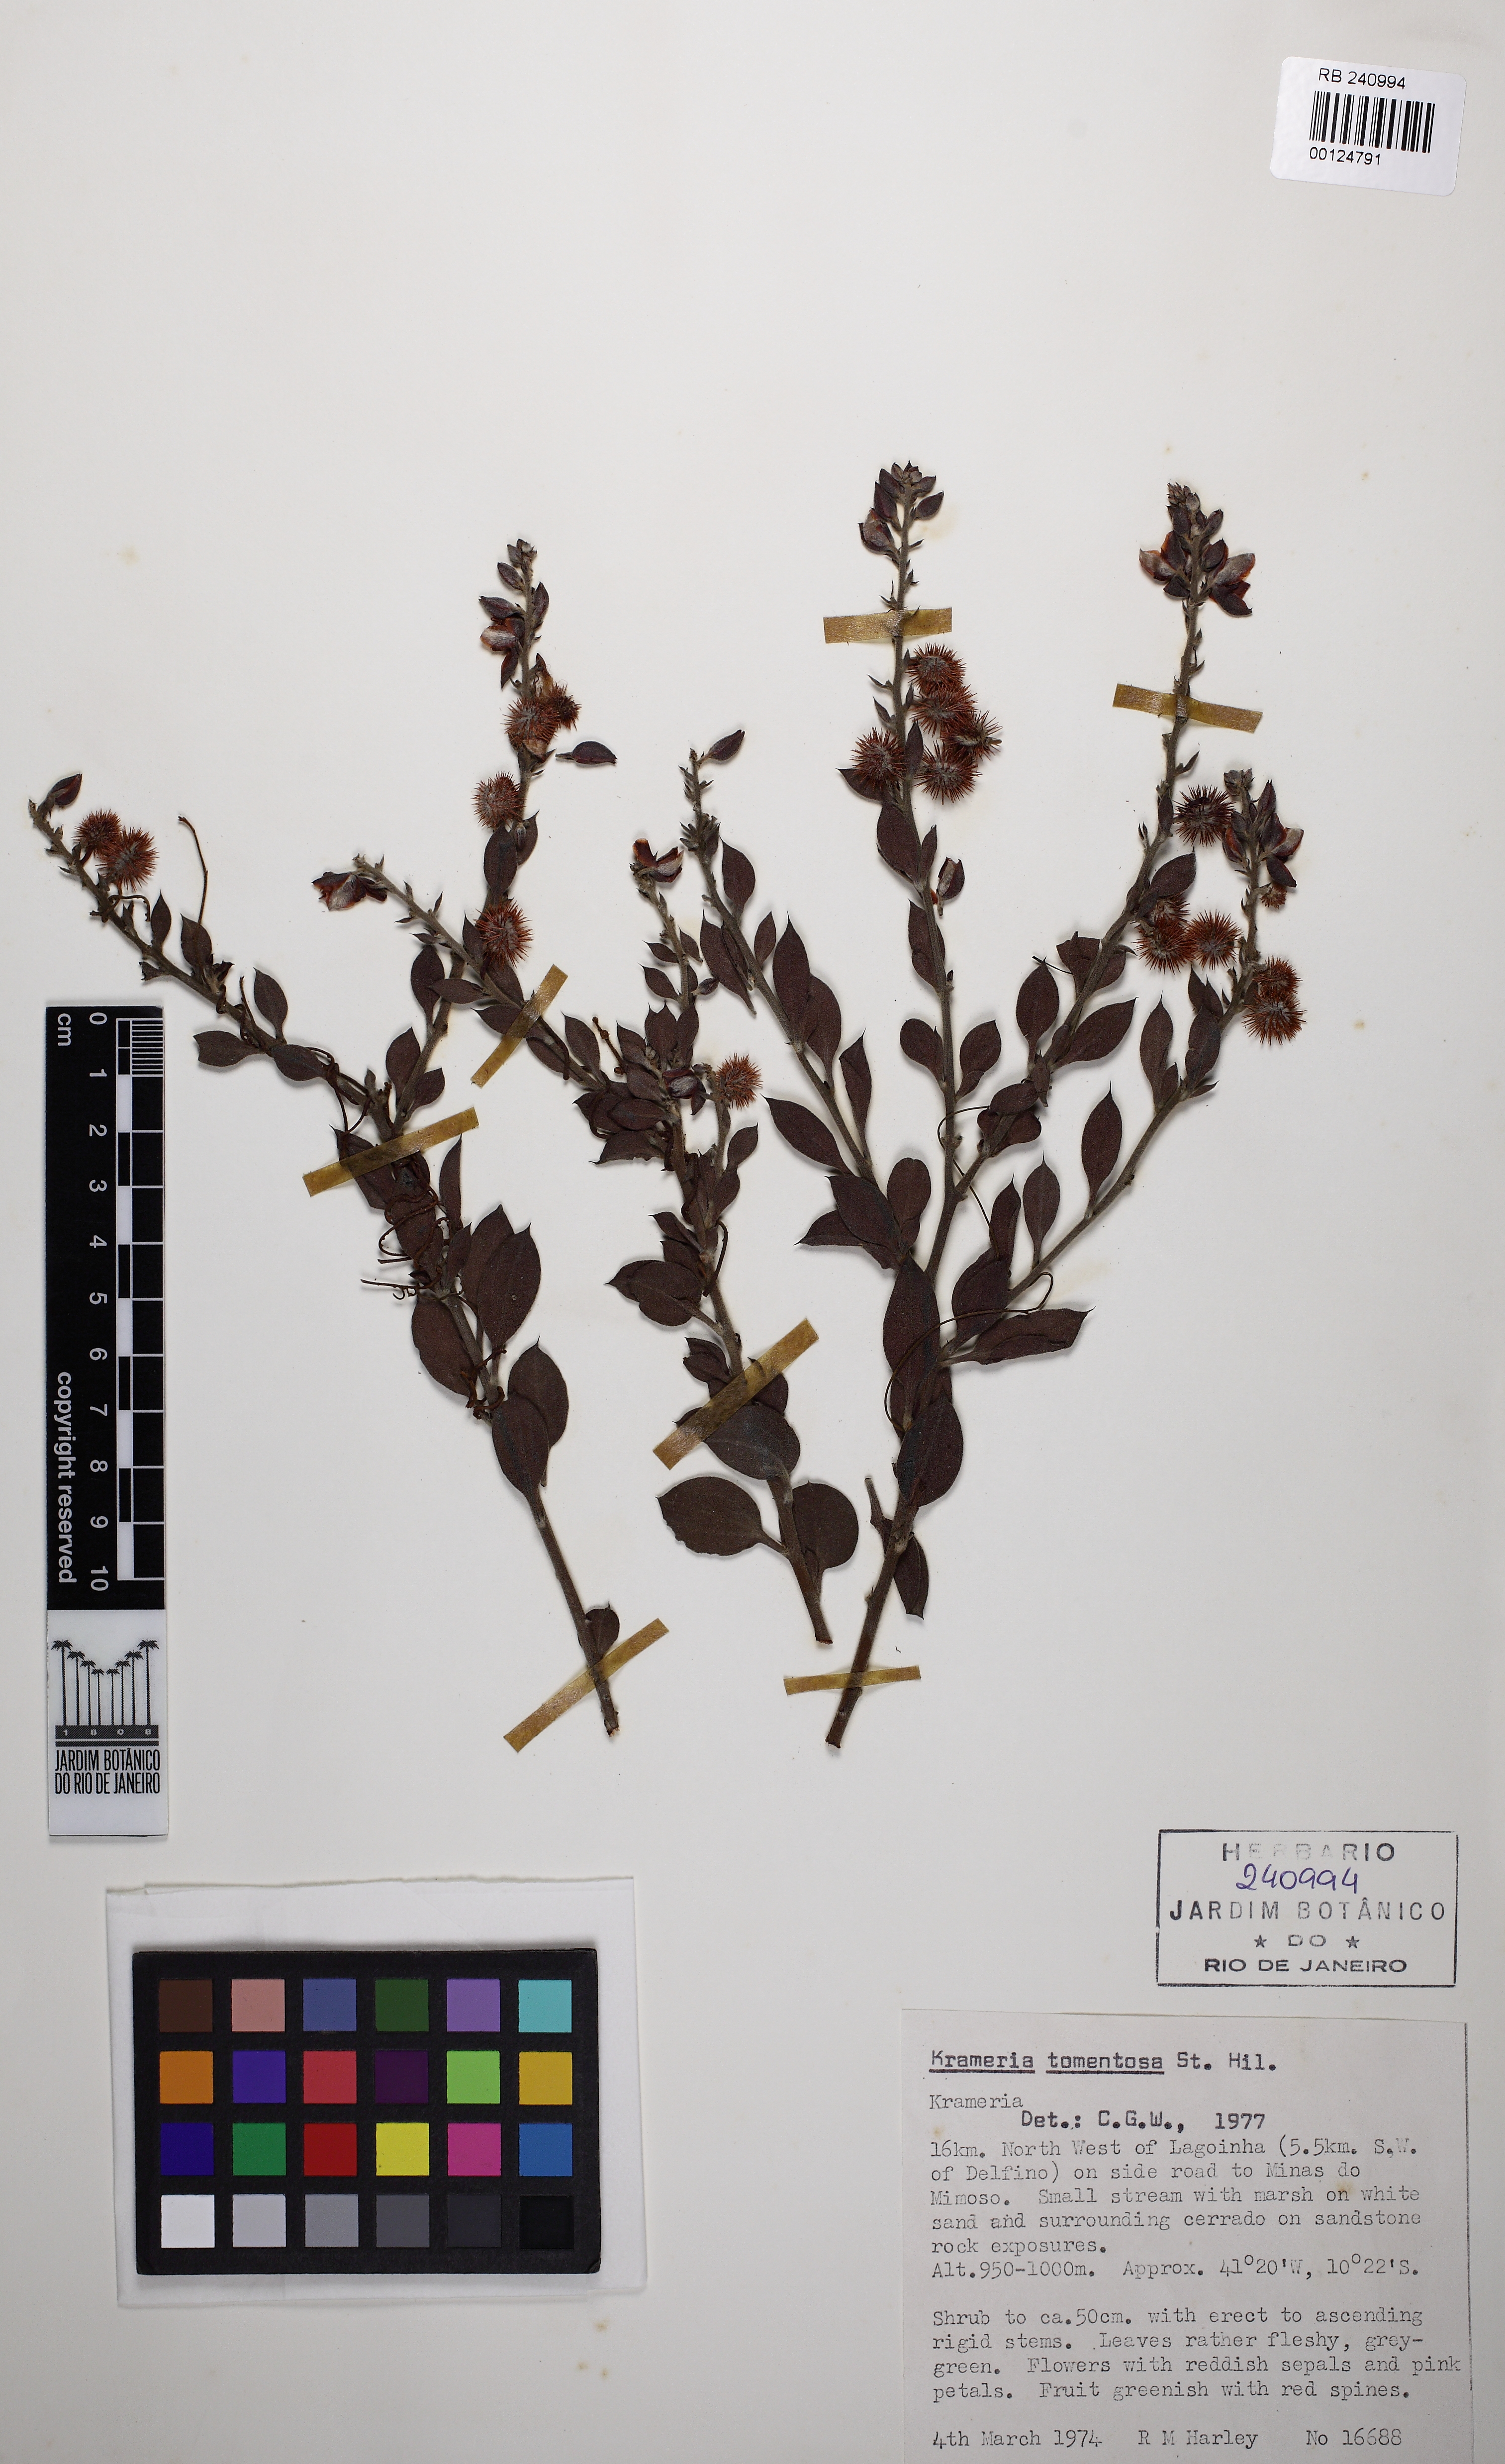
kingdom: Plantae
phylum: Tracheophyta
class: Magnoliopsida
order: Zygophyllales
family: Krameriaceae
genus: Krameria
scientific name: Krameria tomentosa
